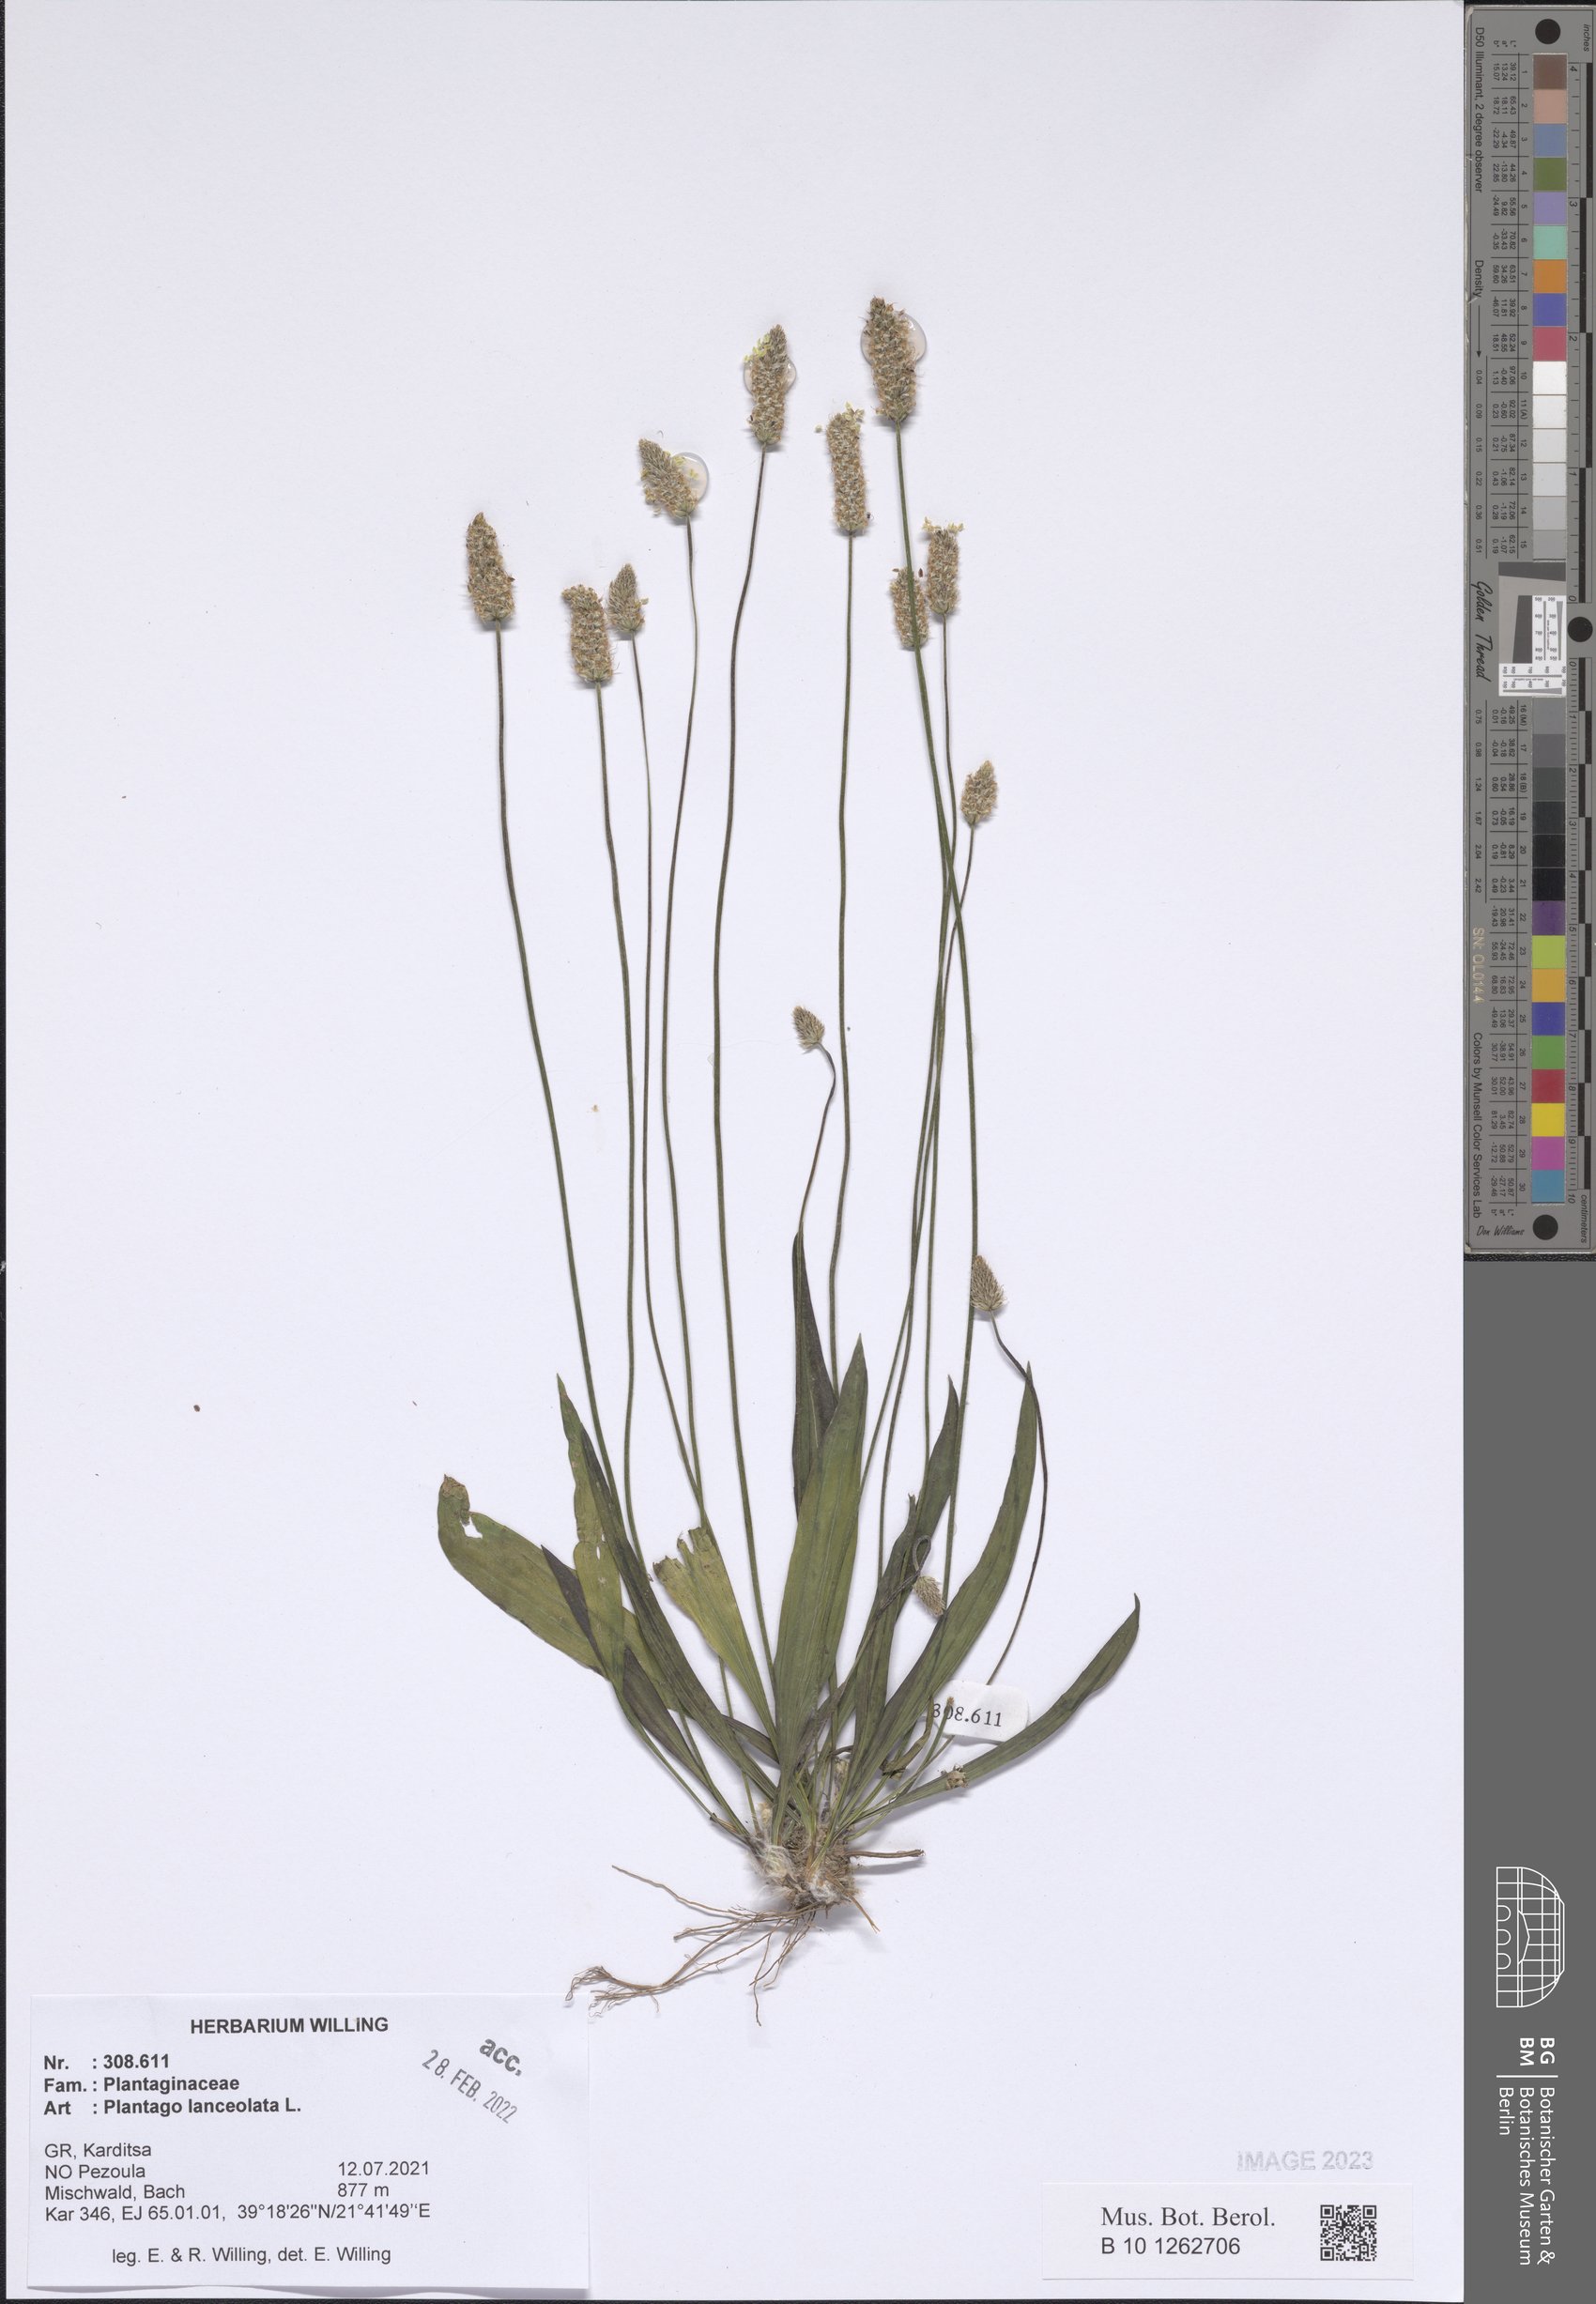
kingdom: Plantae
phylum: Tracheophyta
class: Magnoliopsida
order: Lamiales
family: Plantaginaceae
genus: Plantago
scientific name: Plantago lanceolata
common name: Ribwort plantain
